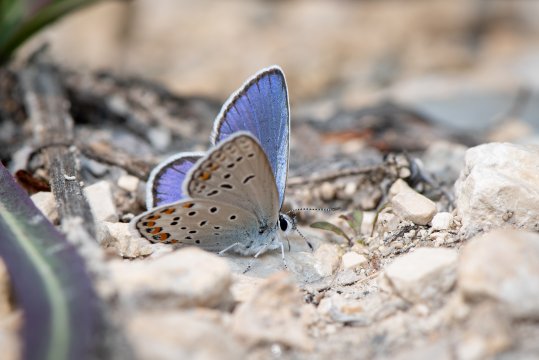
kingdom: Animalia
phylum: Arthropoda
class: Insecta
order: Lepidoptera
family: Lycaenidae
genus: Lycaeides
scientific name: Lycaeides idas
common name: Northern Blue
